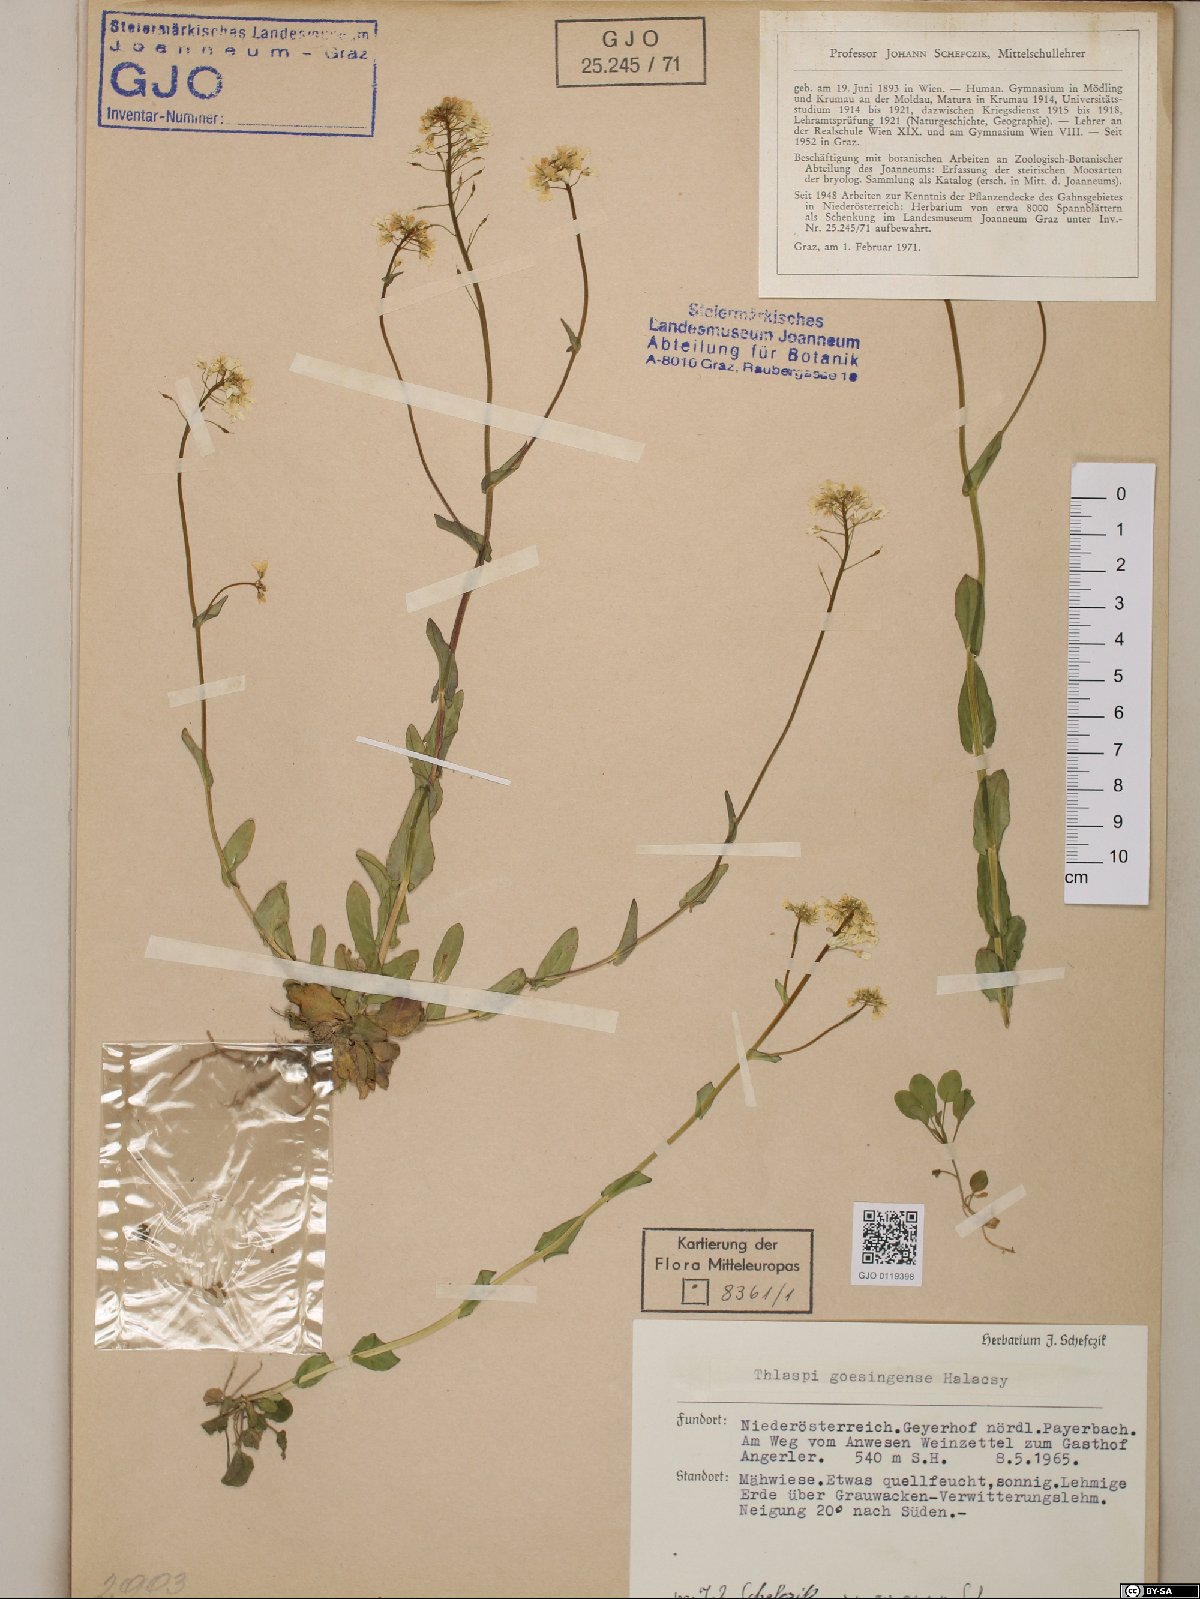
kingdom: Plantae
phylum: Tracheophyta
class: Magnoliopsida
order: Brassicales
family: Brassicaceae
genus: Noccaea
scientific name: Noccaea goesingensis
